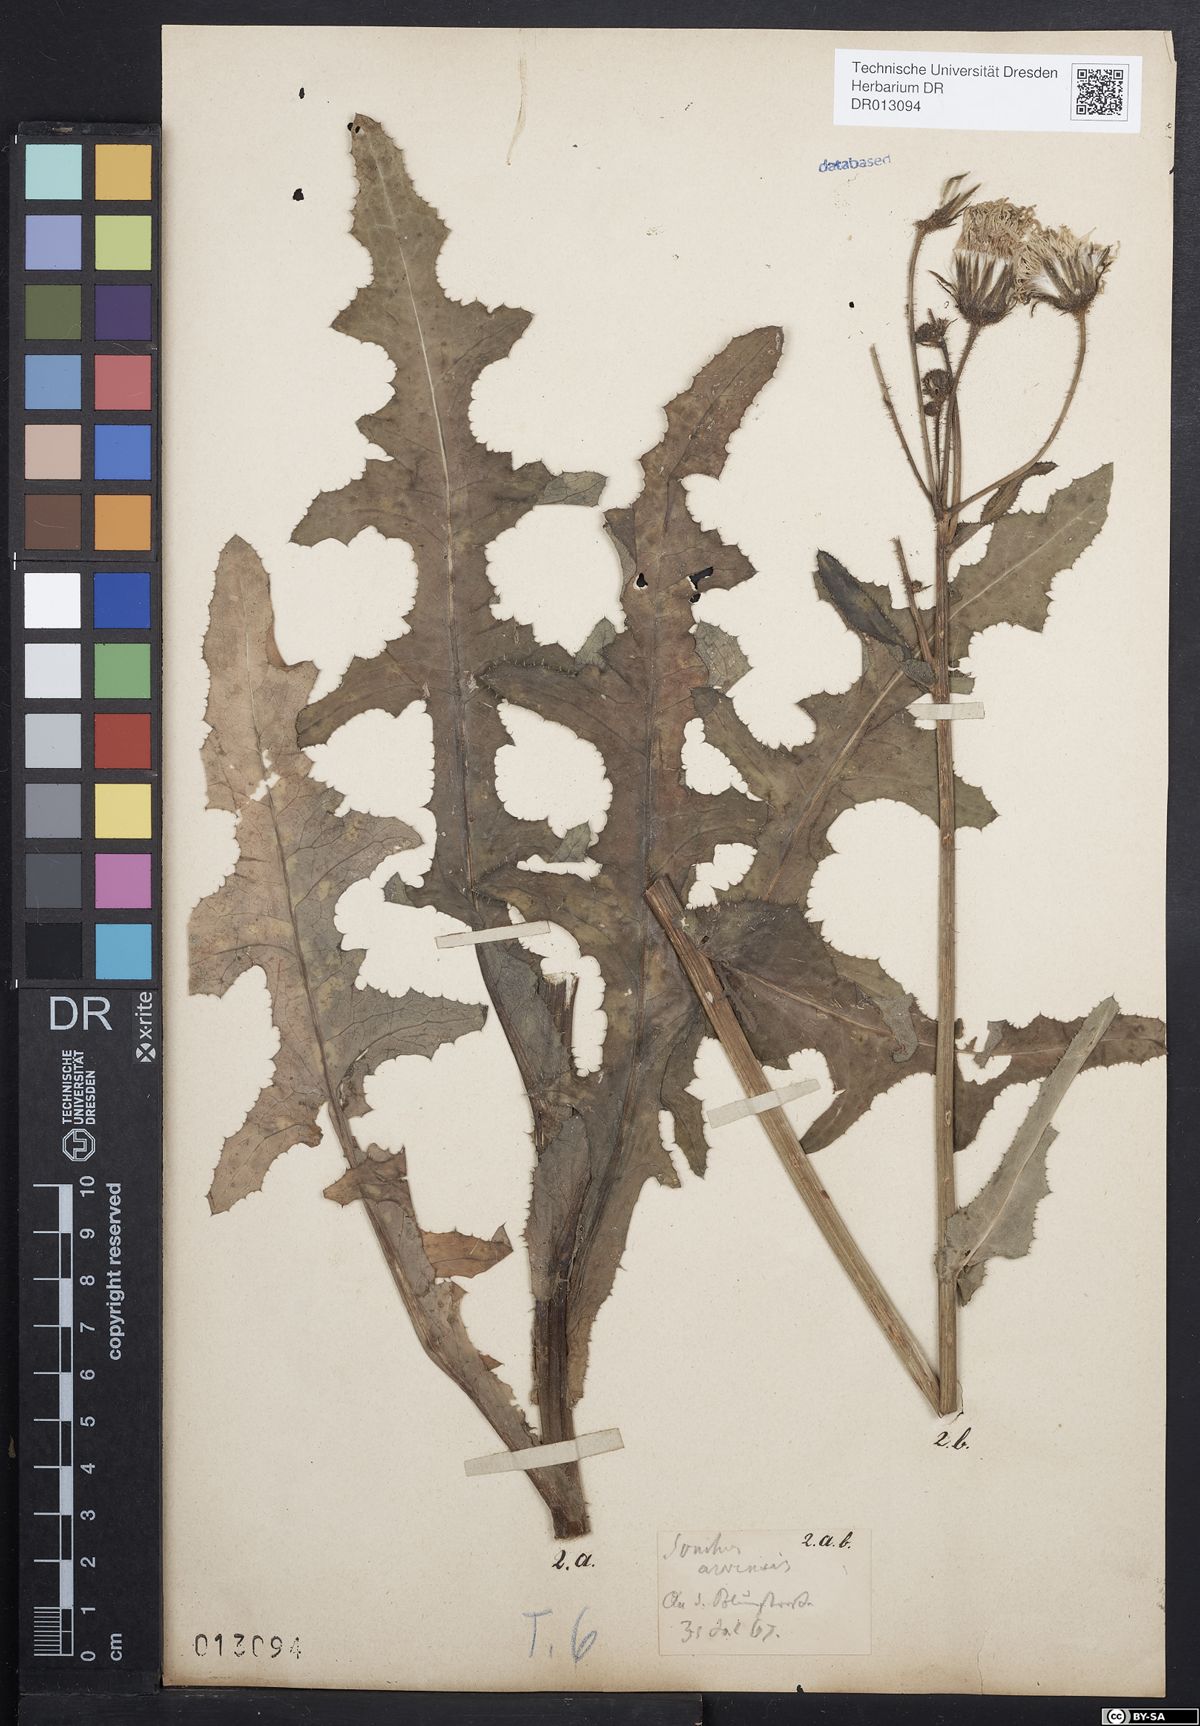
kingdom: Plantae
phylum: Tracheophyta
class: Magnoliopsida
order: Asterales
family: Asteraceae
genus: Sonchus
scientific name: Sonchus arvensis
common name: Perennial sow-thistle
